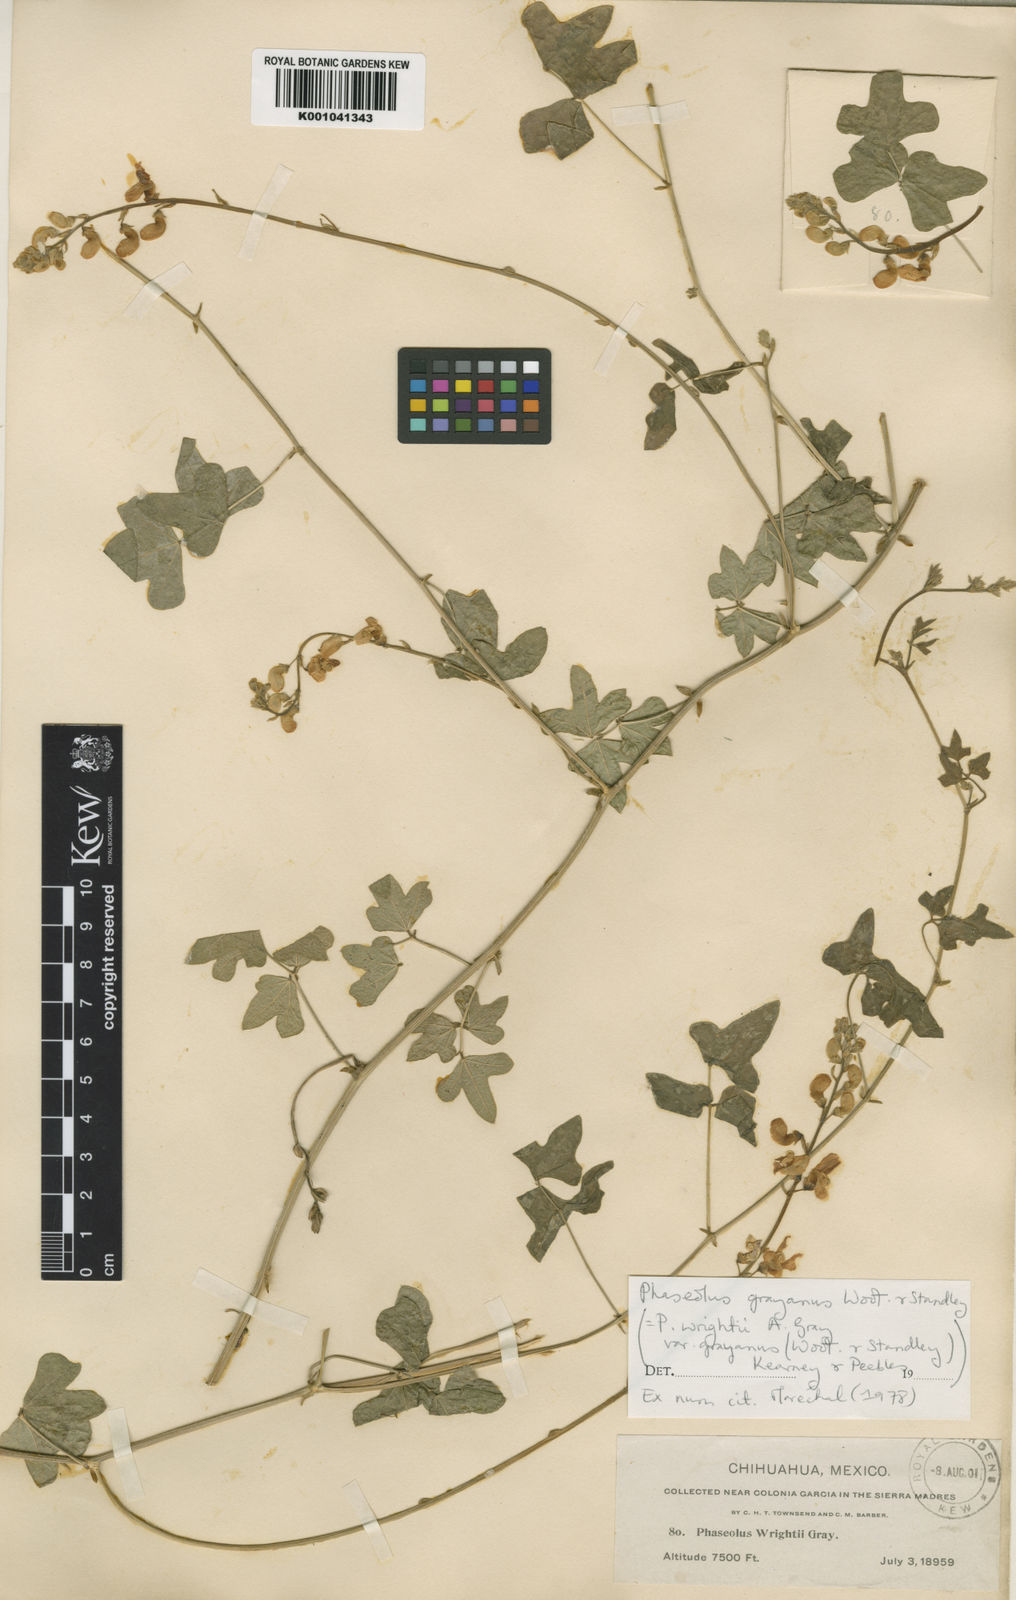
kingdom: Plantae
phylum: Tracheophyta
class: Magnoliopsida
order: Fabales
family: Fabaceae
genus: Phaseolus
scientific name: Phaseolus pedicellatus
